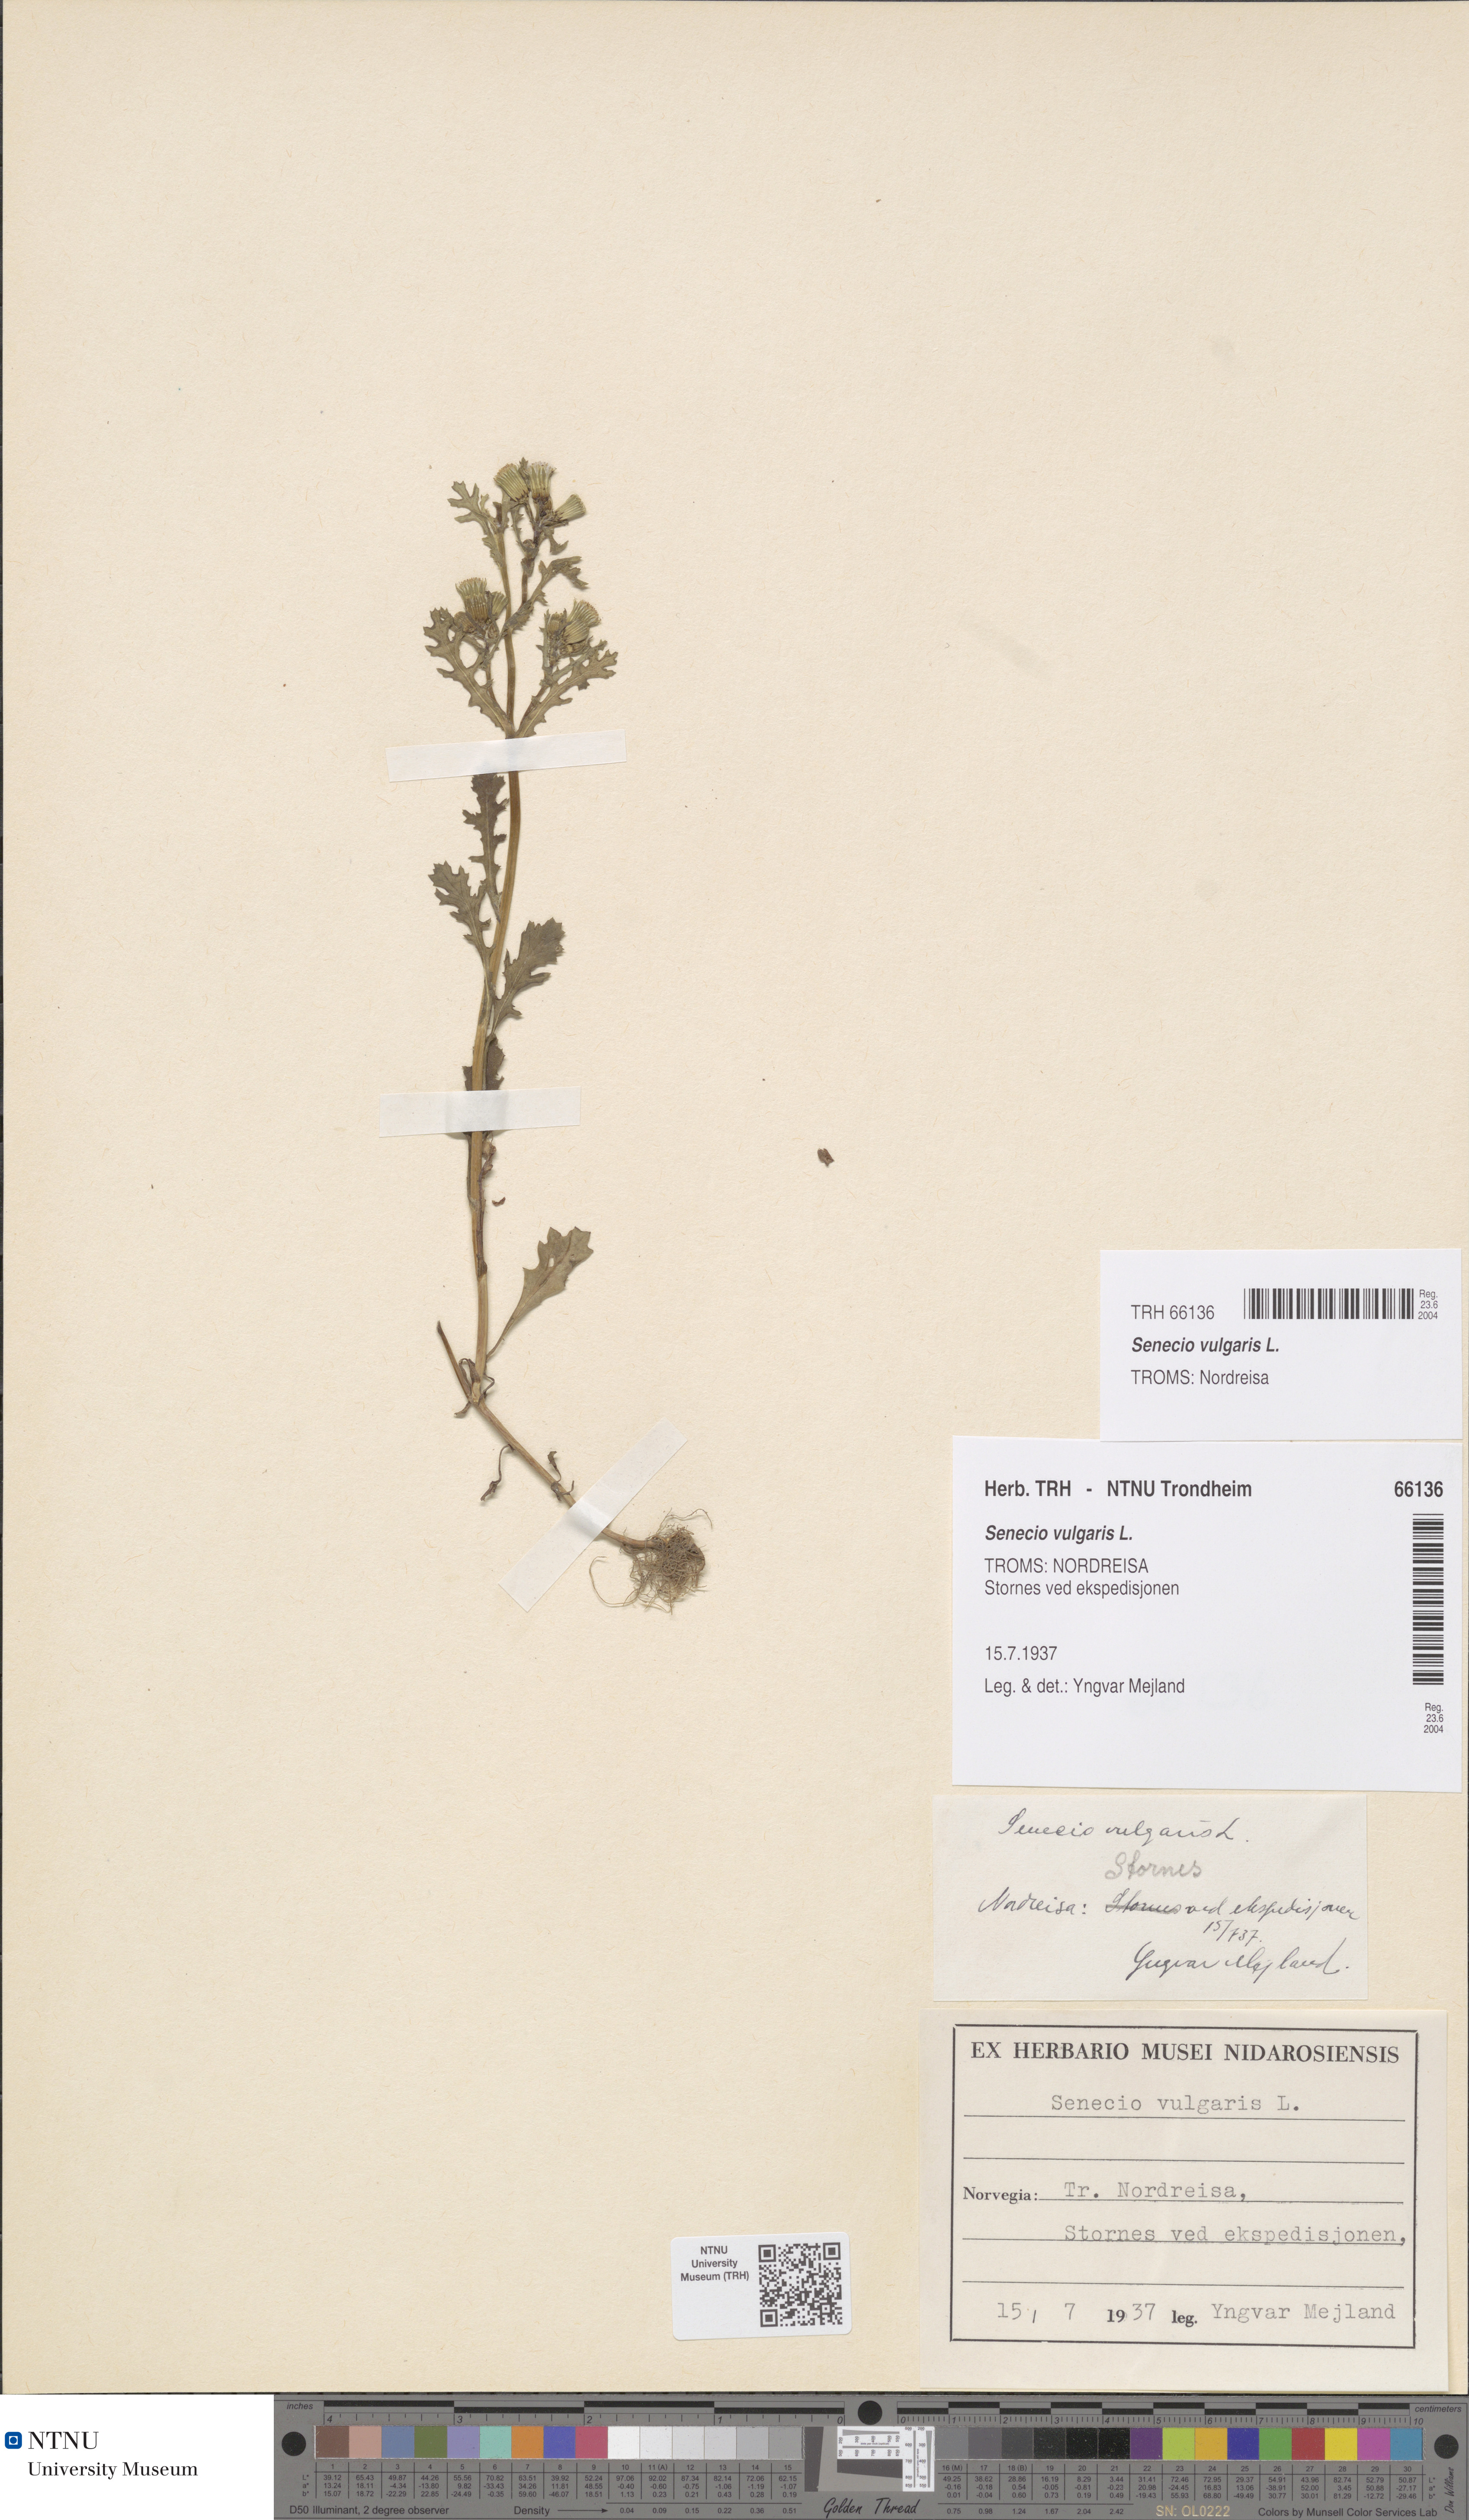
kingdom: Plantae
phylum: Tracheophyta
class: Magnoliopsida
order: Asterales
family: Asteraceae
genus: Senecio
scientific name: Senecio vulgaris
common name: Old-man-in-the-spring
